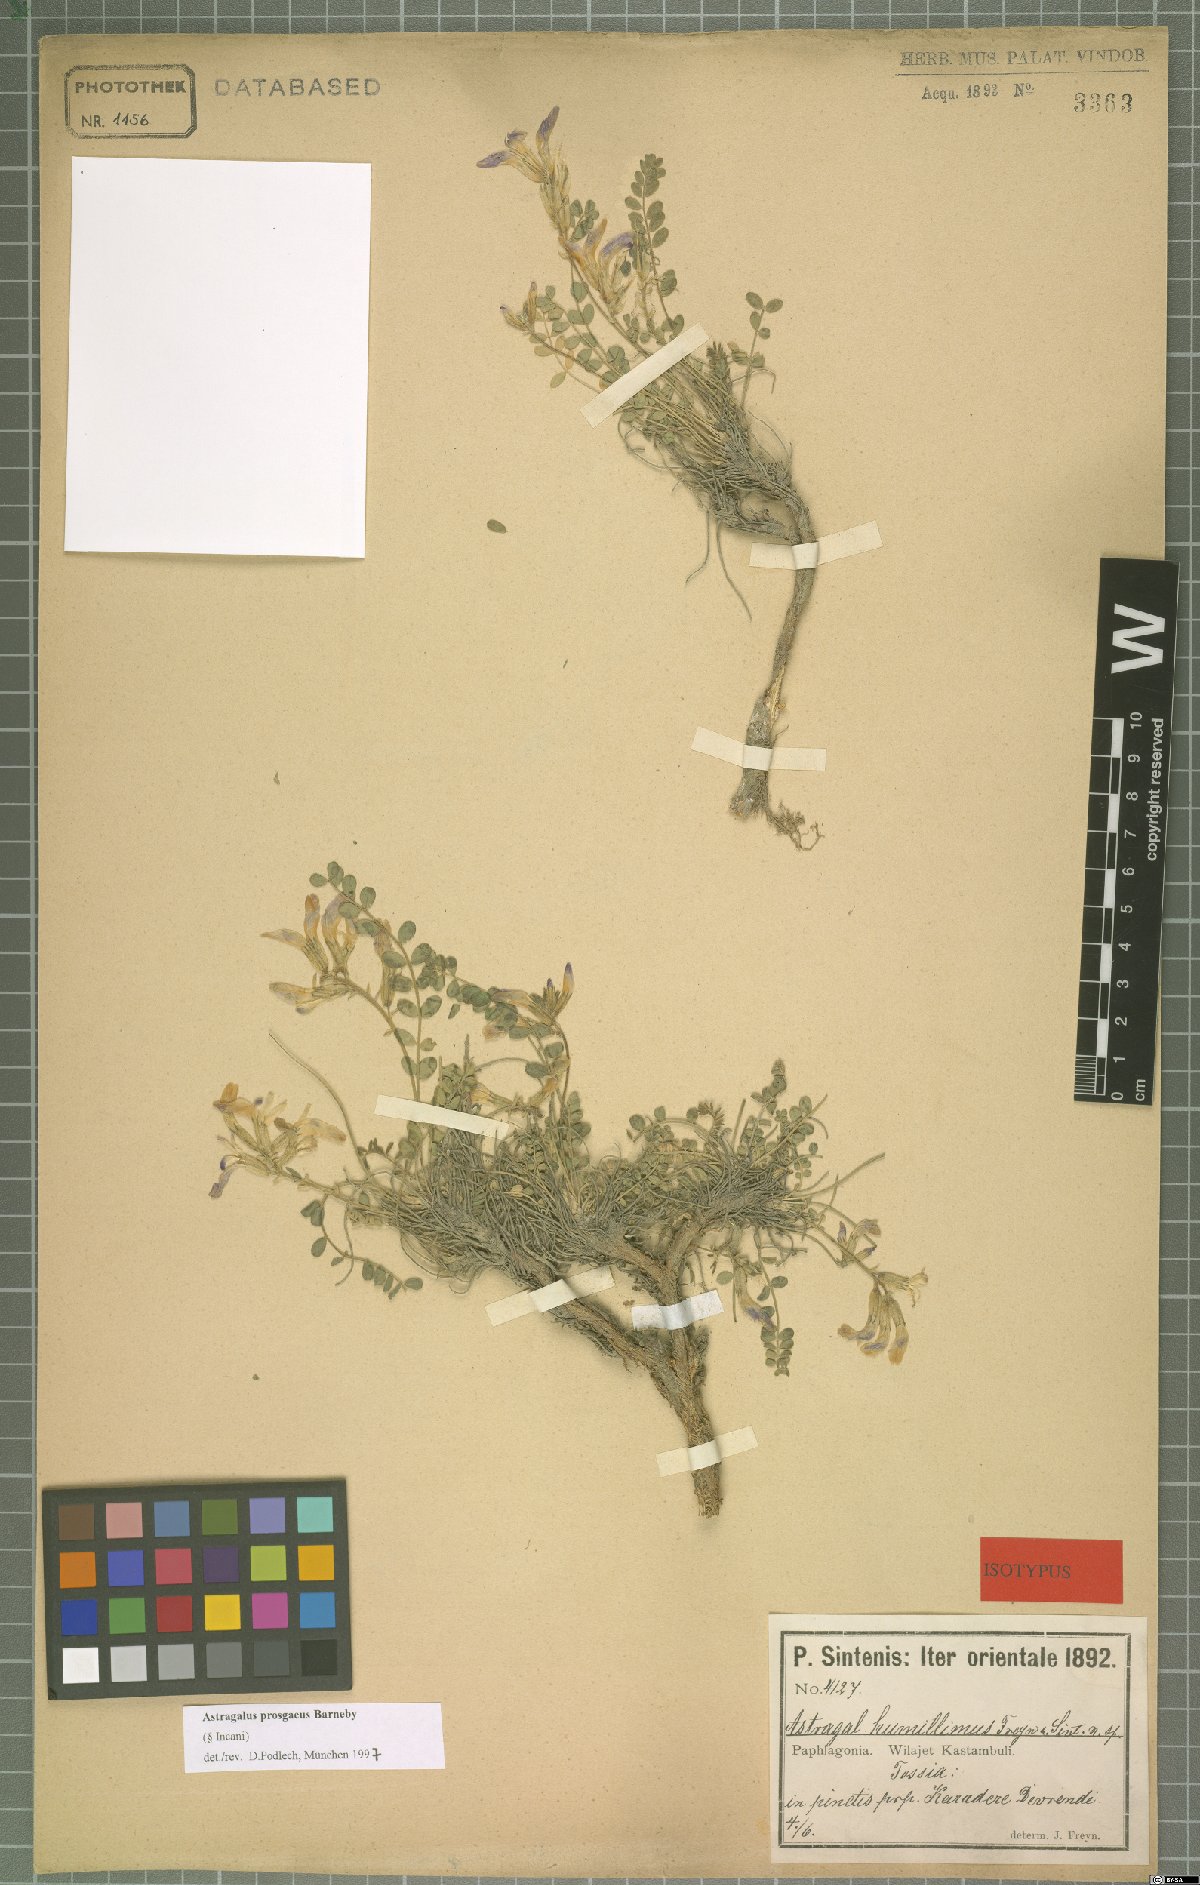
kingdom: Plantae
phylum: Tracheophyta
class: Magnoliopsida
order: Fabales
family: Fabaceae
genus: Astragalus
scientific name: Astragalus prosgaeus
